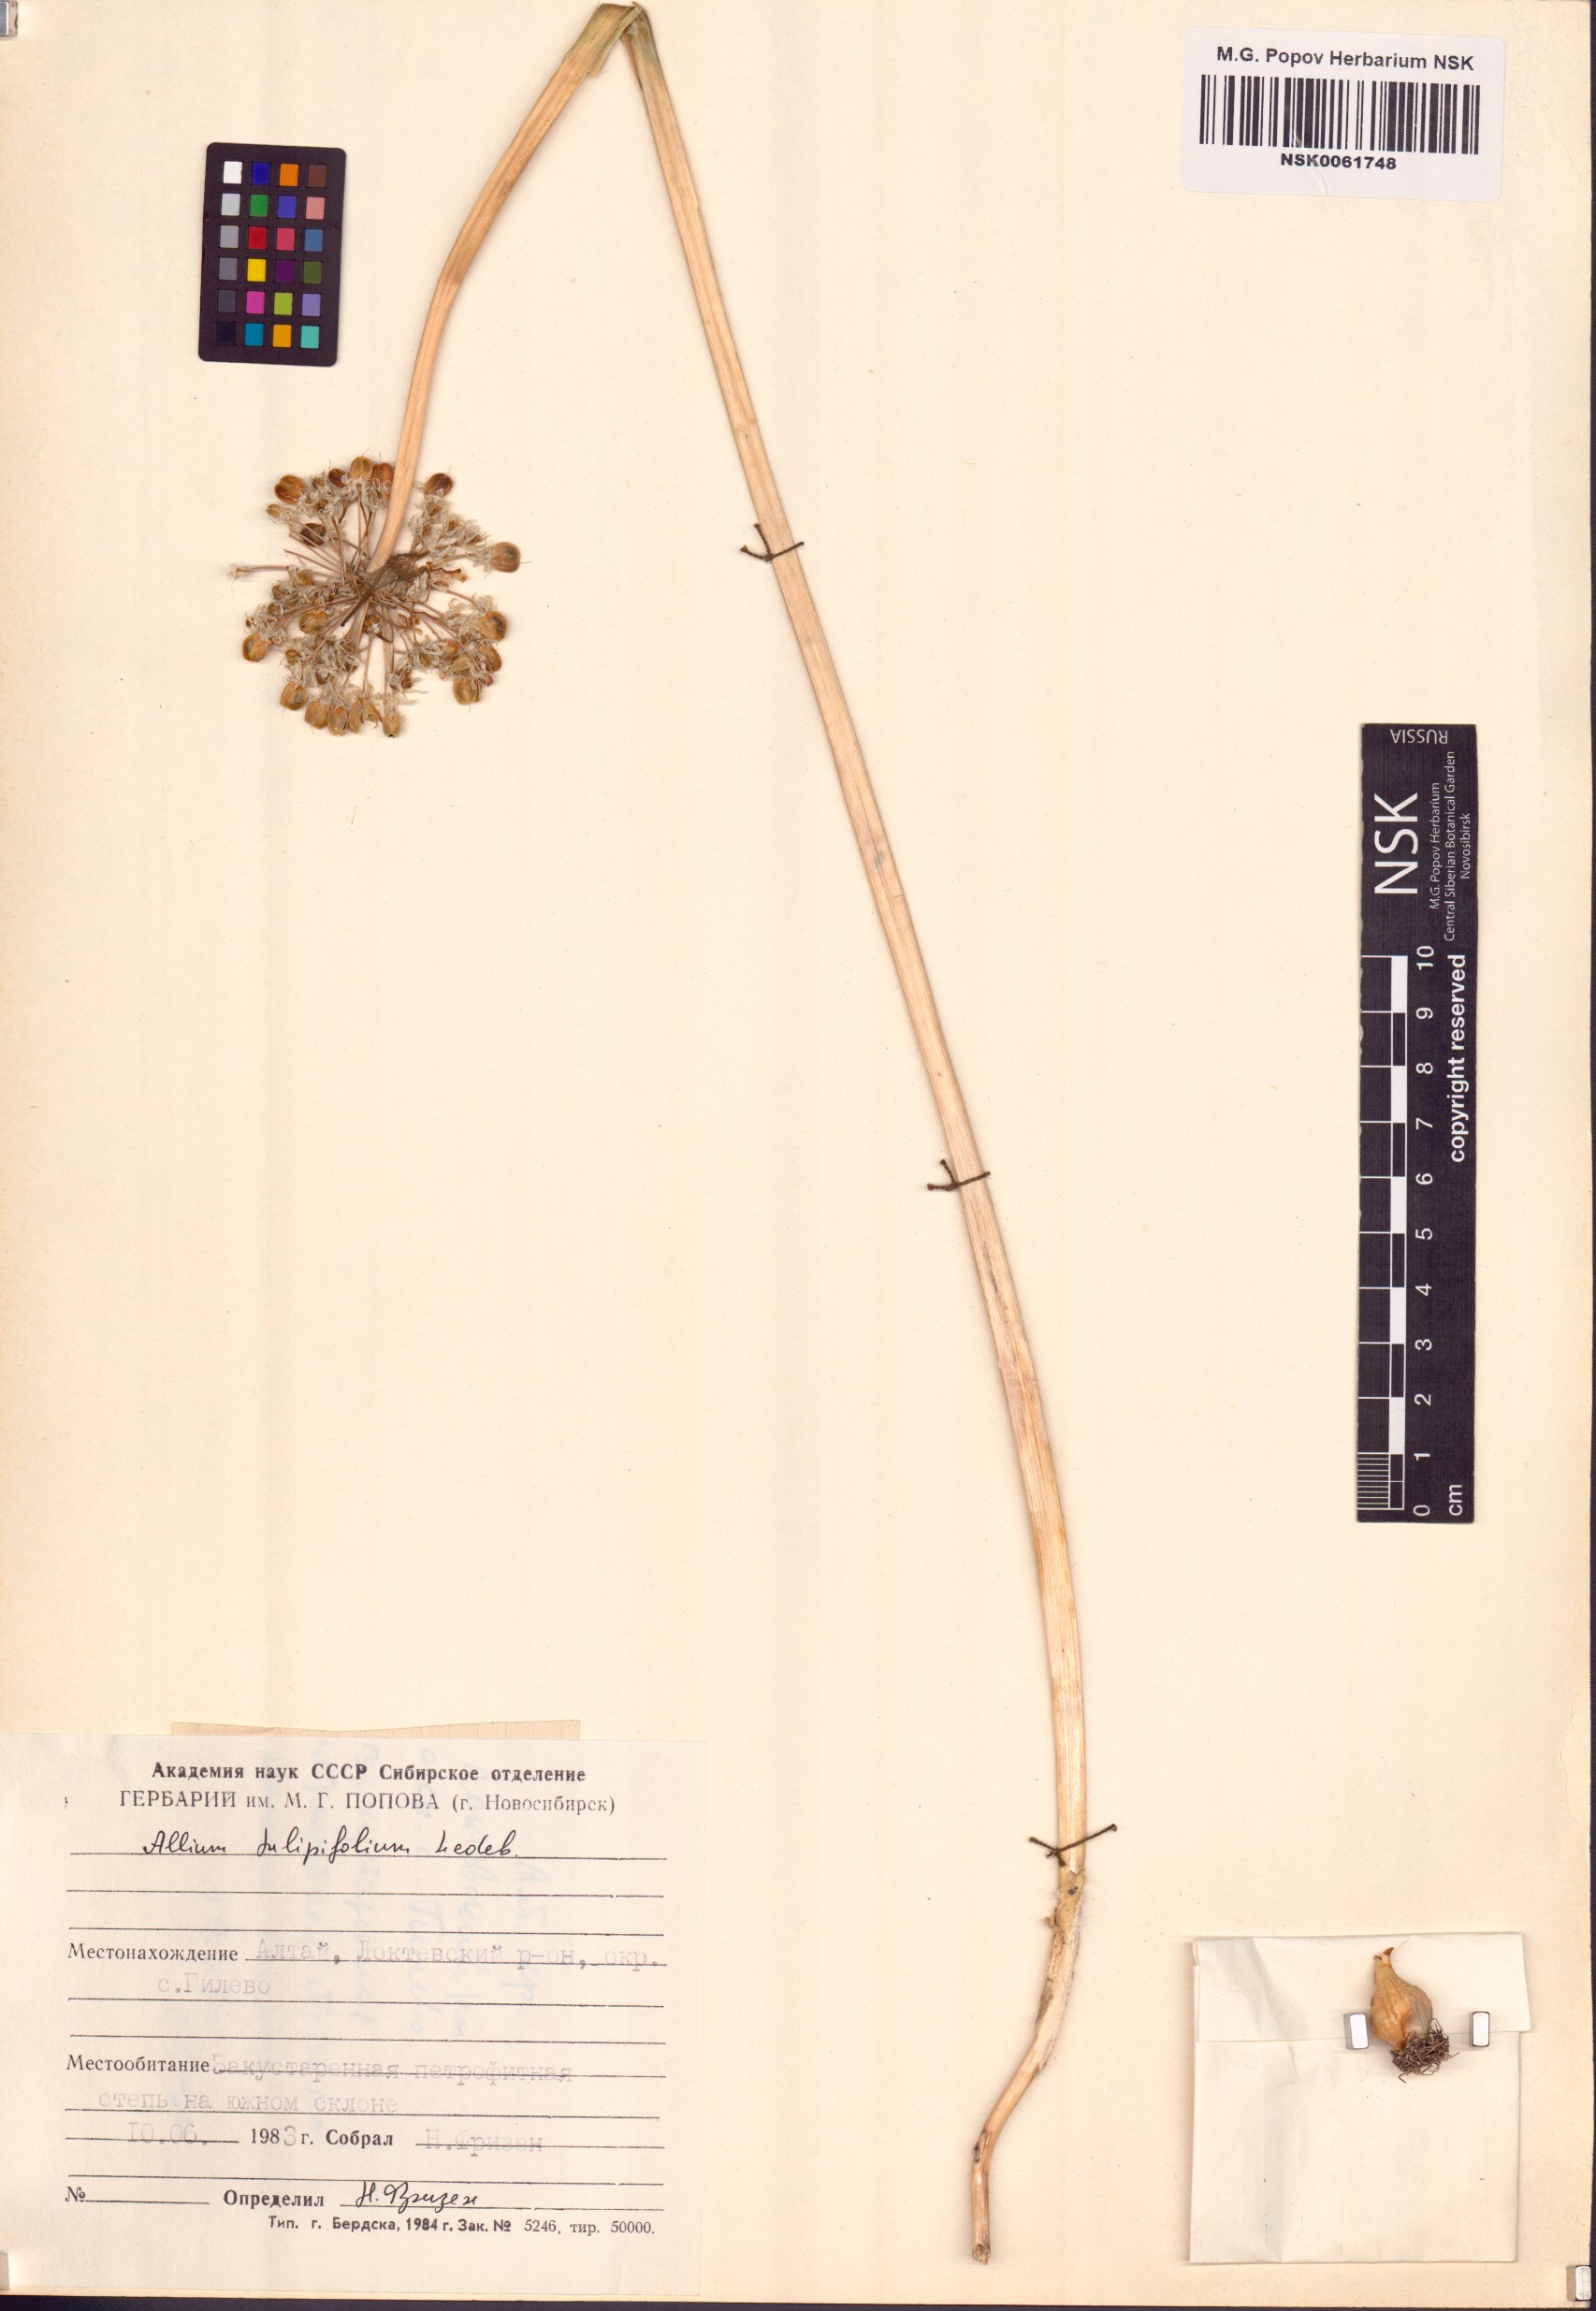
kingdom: Plantae
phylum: Tracheophyta
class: Liliopsida
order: Asparagales
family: Amaryllidaceae
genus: Allium
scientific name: Allium tulipifolium
